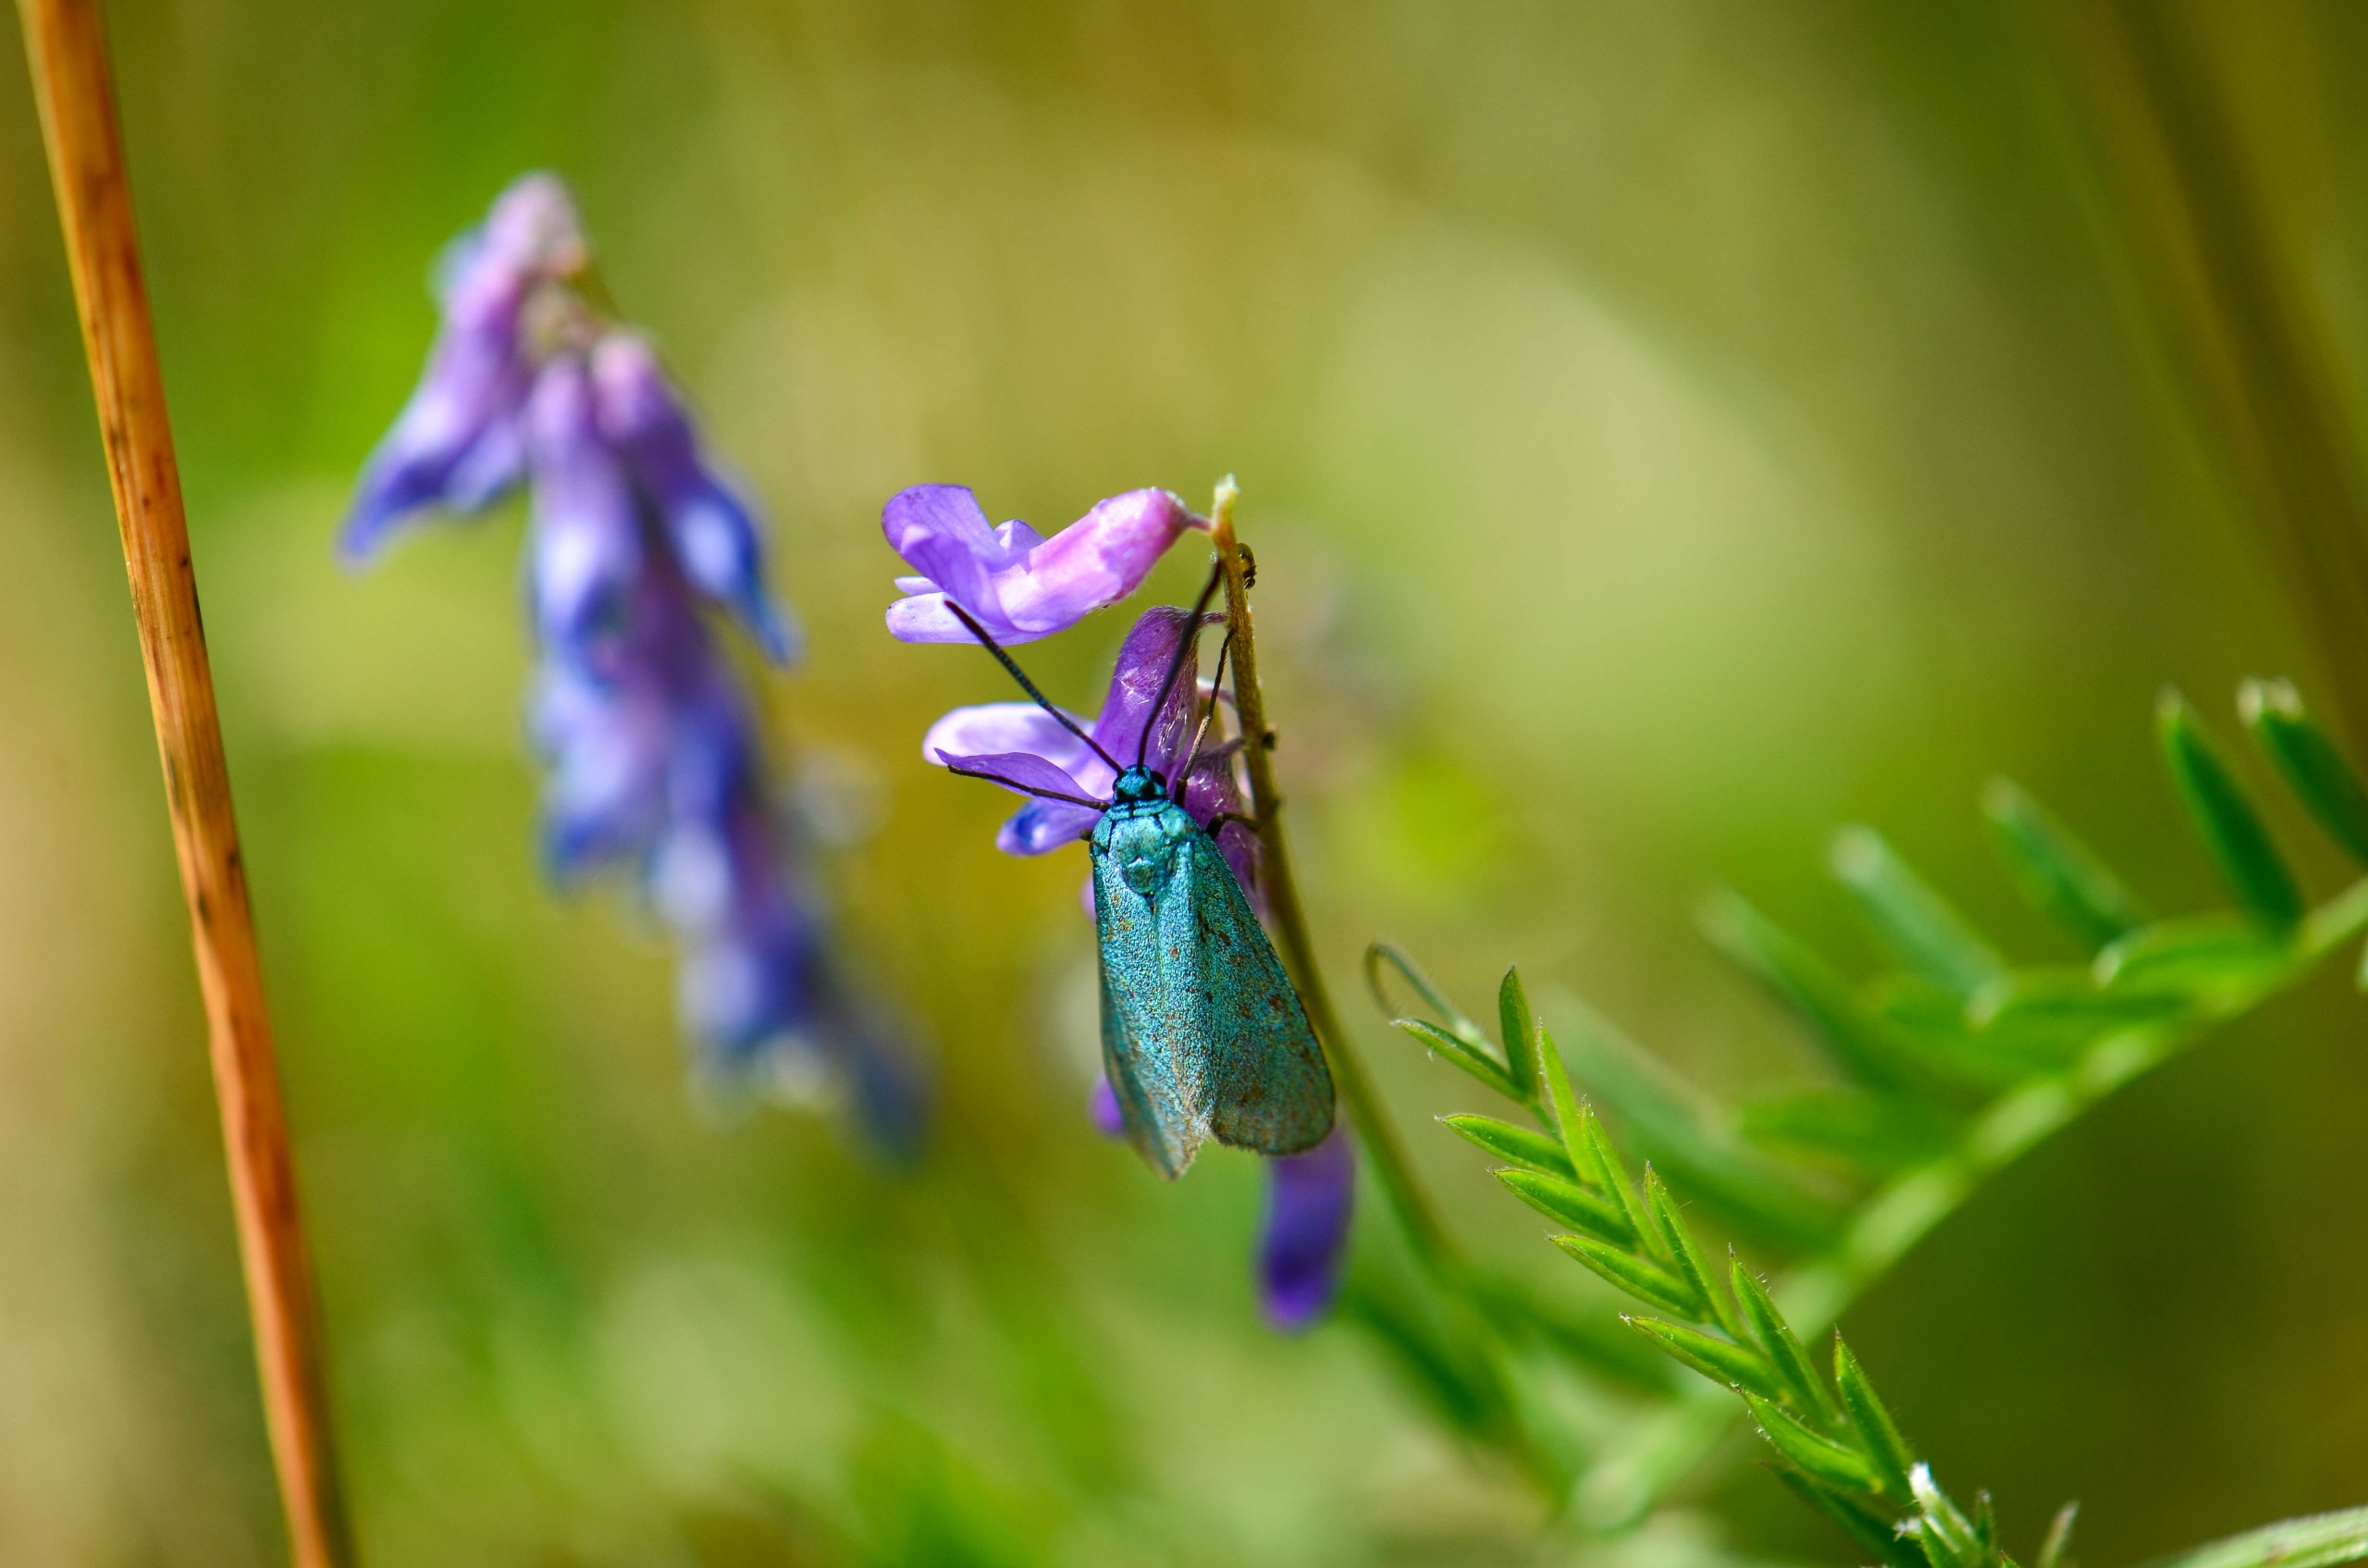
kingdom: Animalia
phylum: Arthropoda
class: Insecta
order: Lepidoptera
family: Zygaenidae
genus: Adscita
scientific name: Adscita statices
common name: Metalvinge
